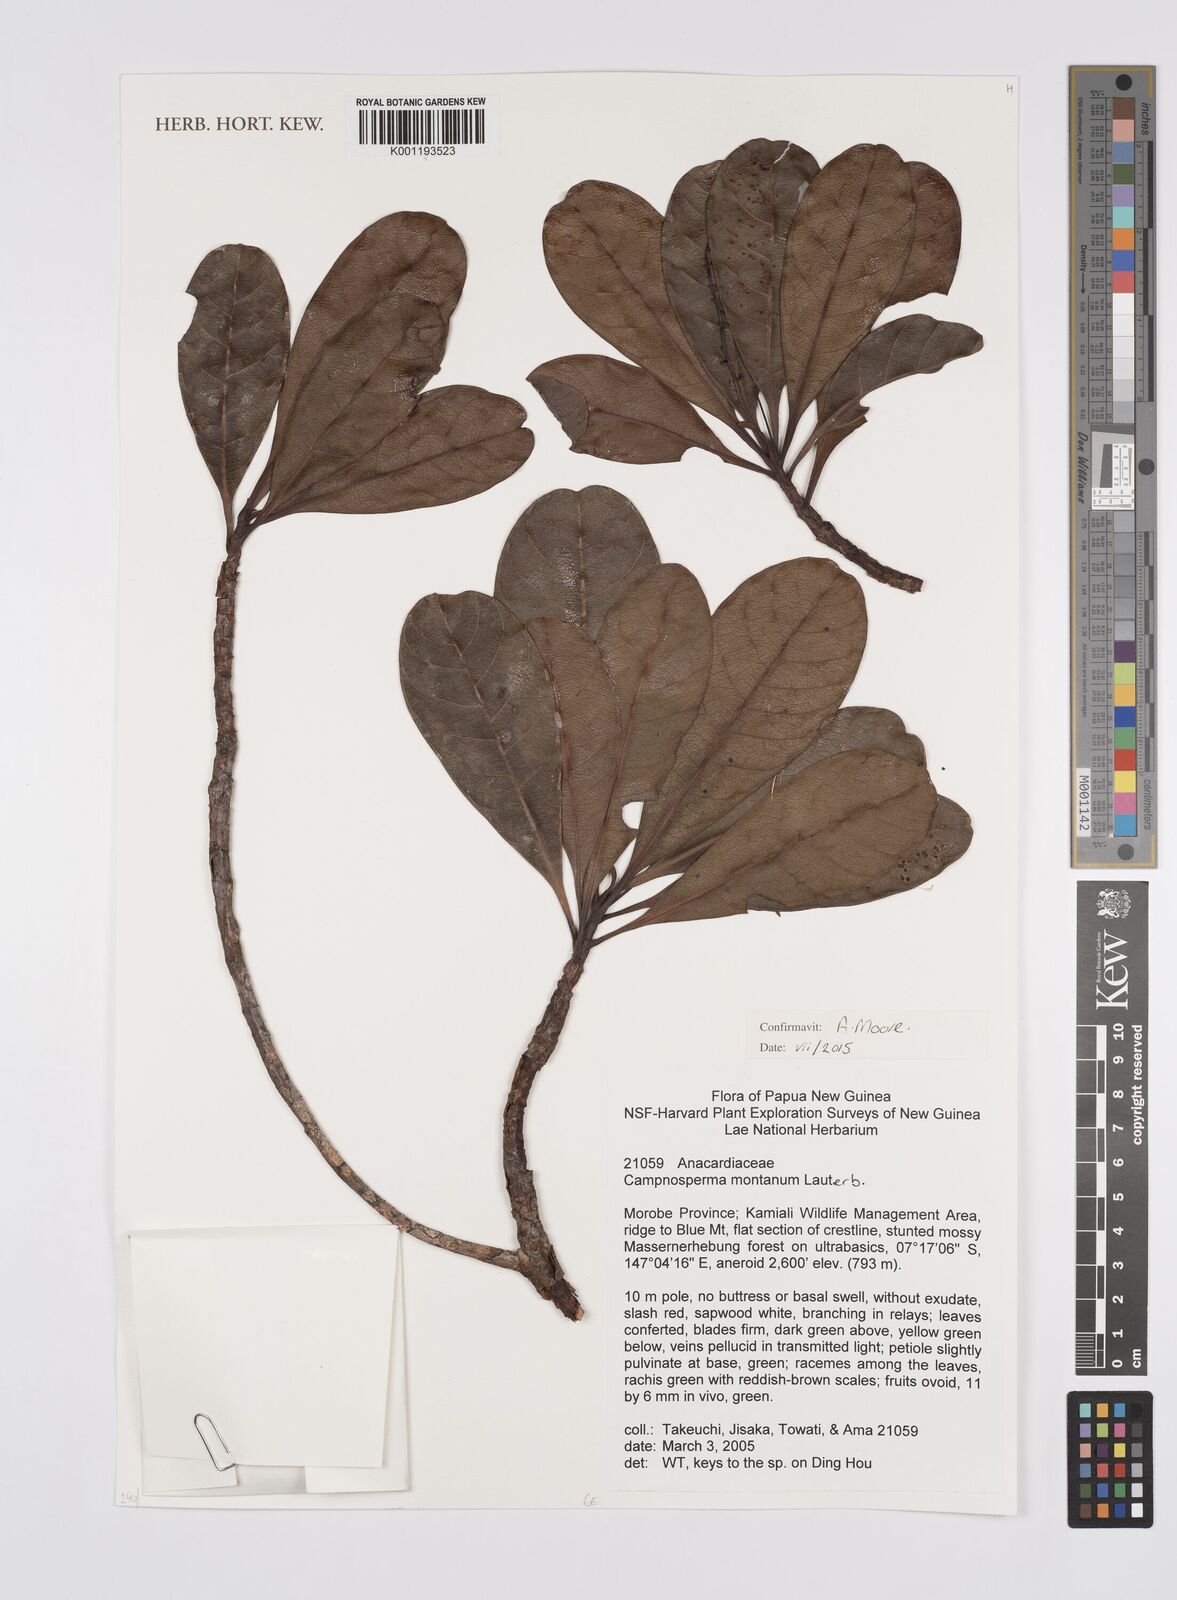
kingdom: Plantae
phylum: Tracheophyta
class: Magnoliopsida
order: Sapindales
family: Anacardiaceae
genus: Campnosperma
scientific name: Campnosperma montanum
